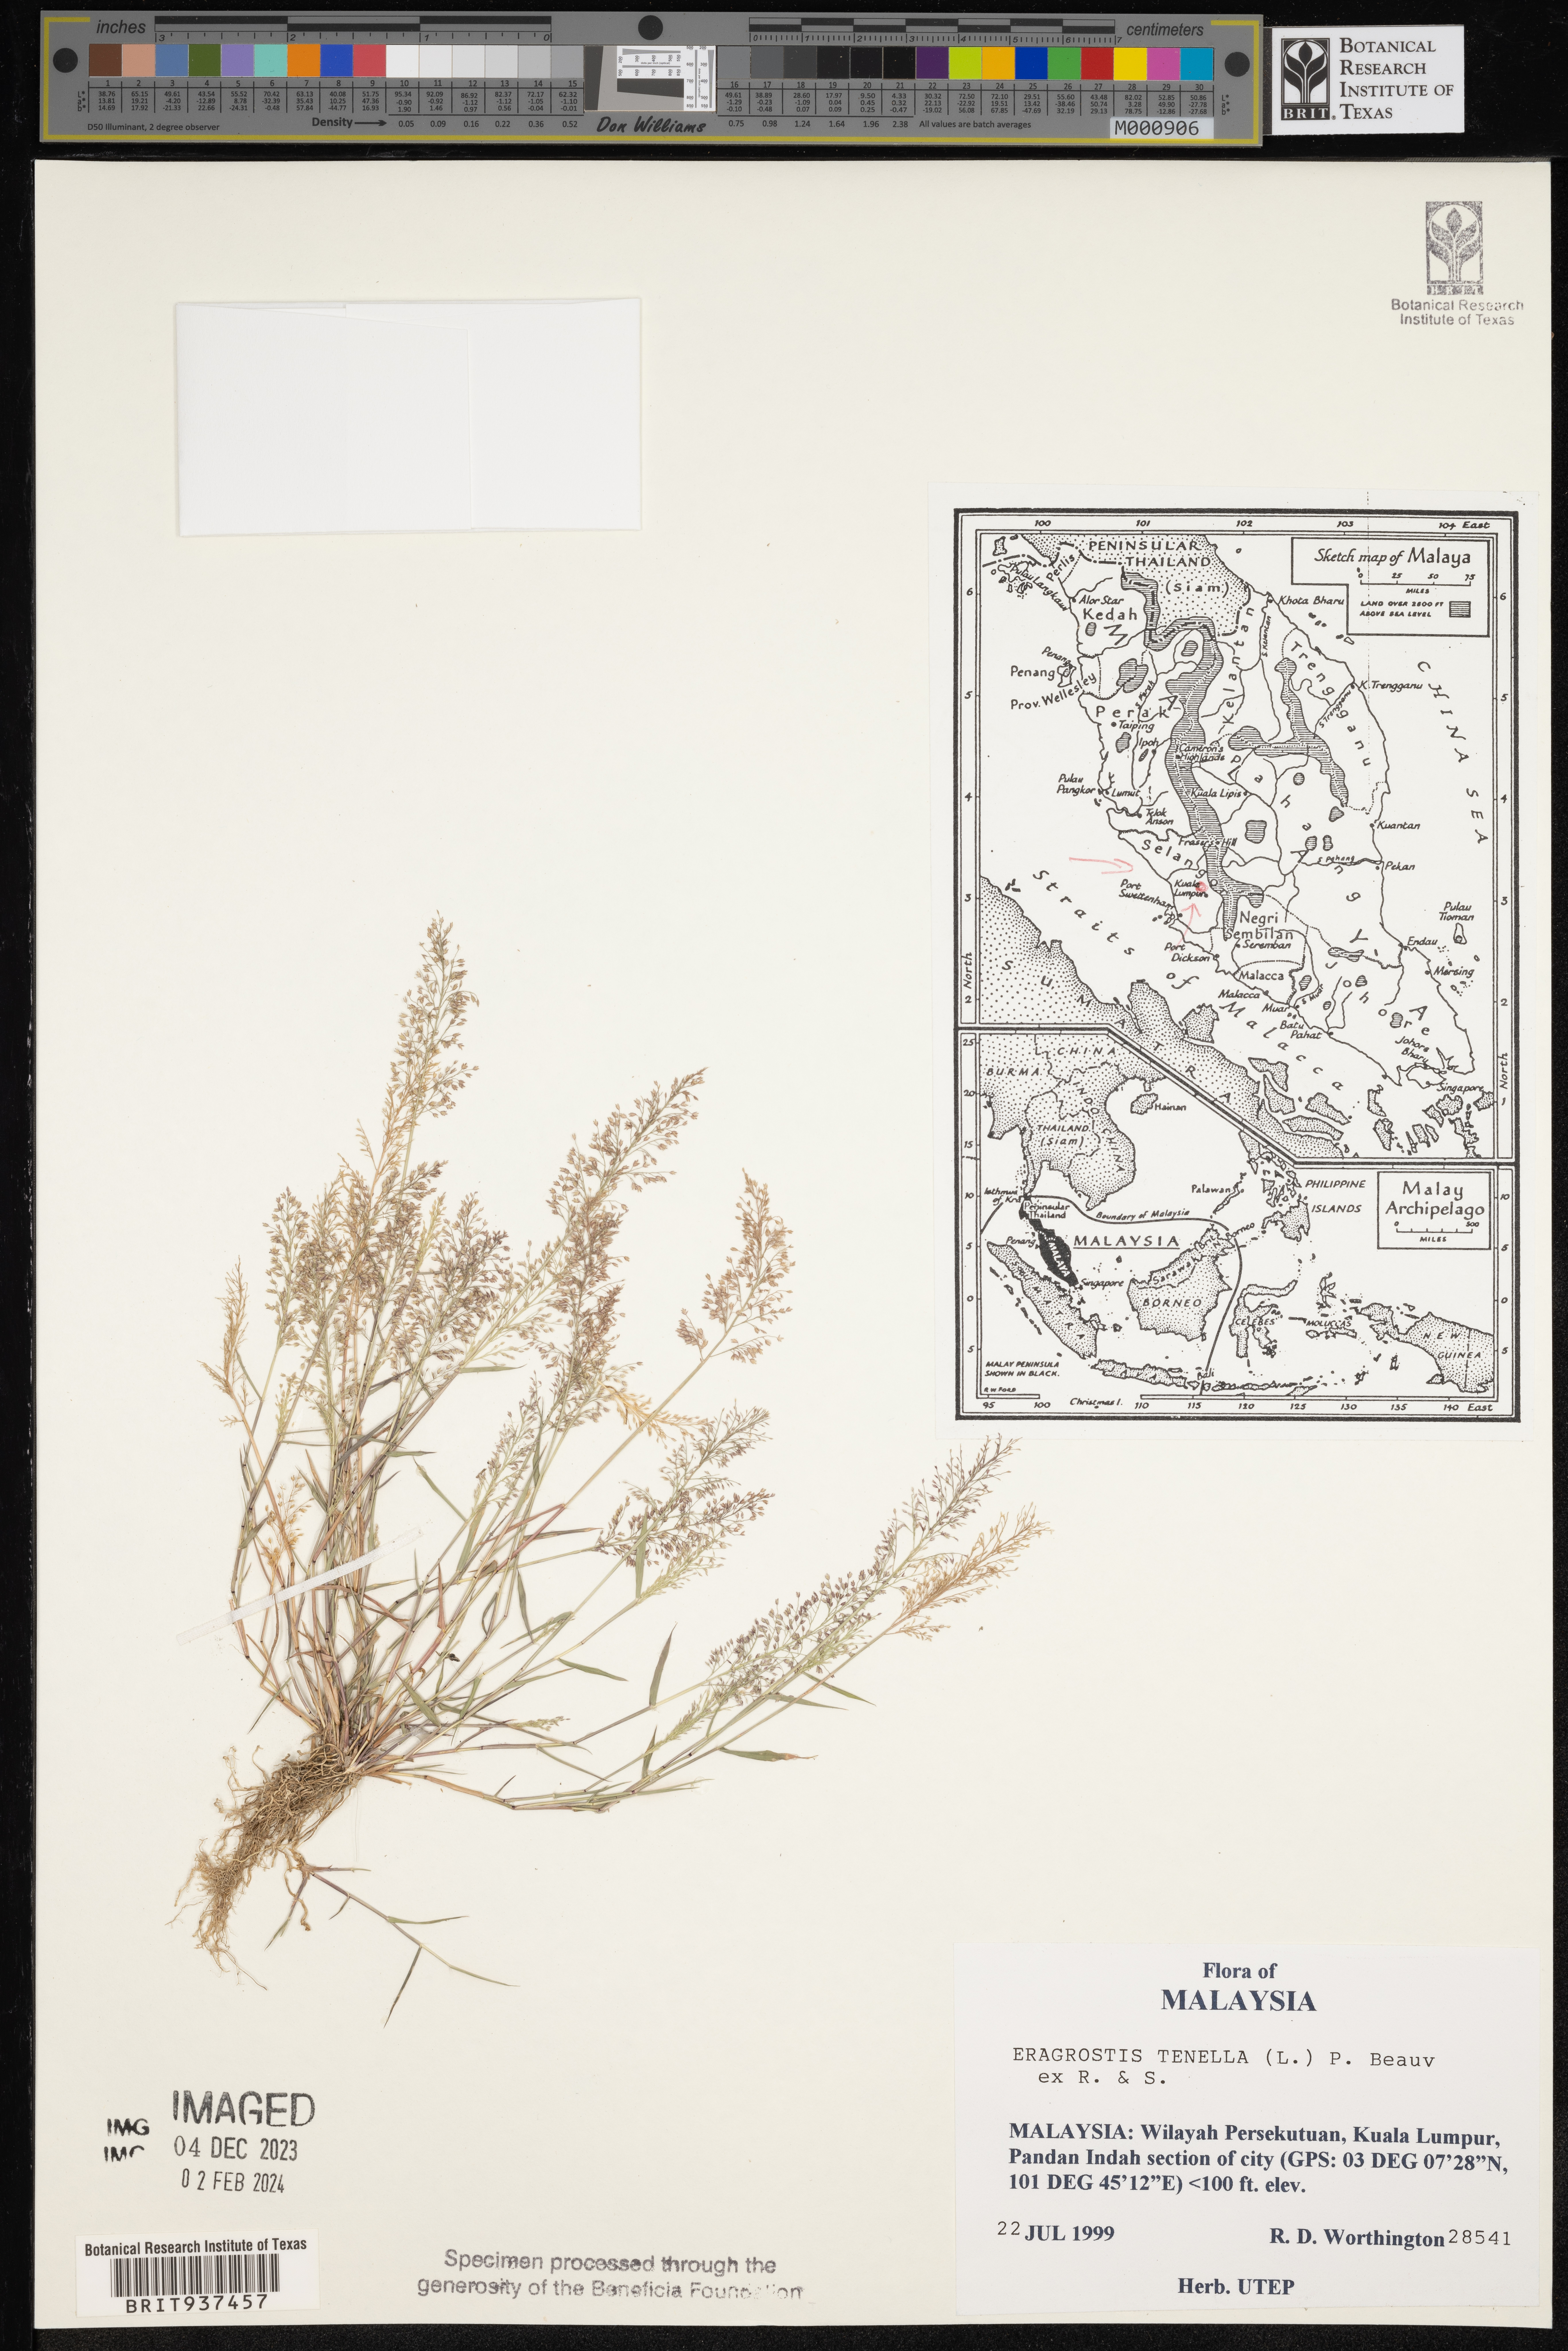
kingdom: Plantae
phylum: Tracheophyta
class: Liliopsida
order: Poales
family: Poaceae
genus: Eragrostis
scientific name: Eragrostis
